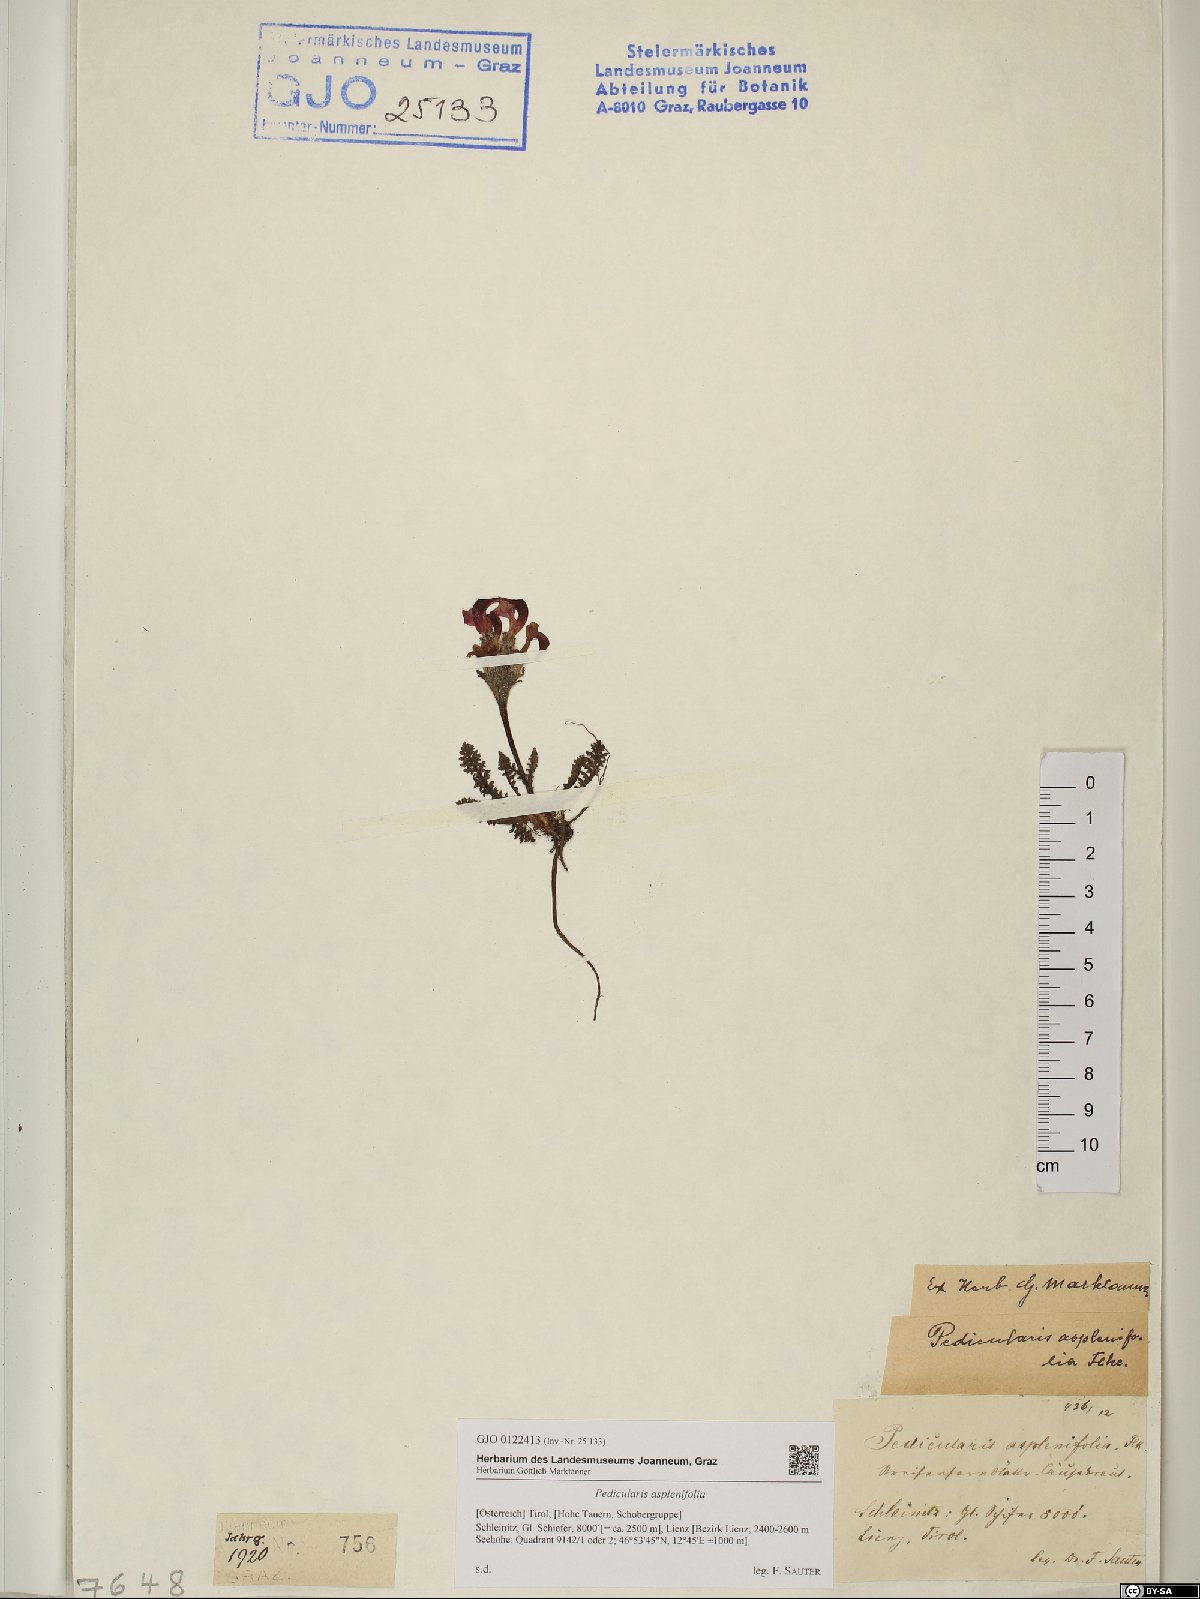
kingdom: Plantae
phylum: Tracheophyta
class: Magnoliopsida
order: Lamiales
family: Orobanchaceae
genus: Pedicularis
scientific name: Pedicularis asplenifolia
